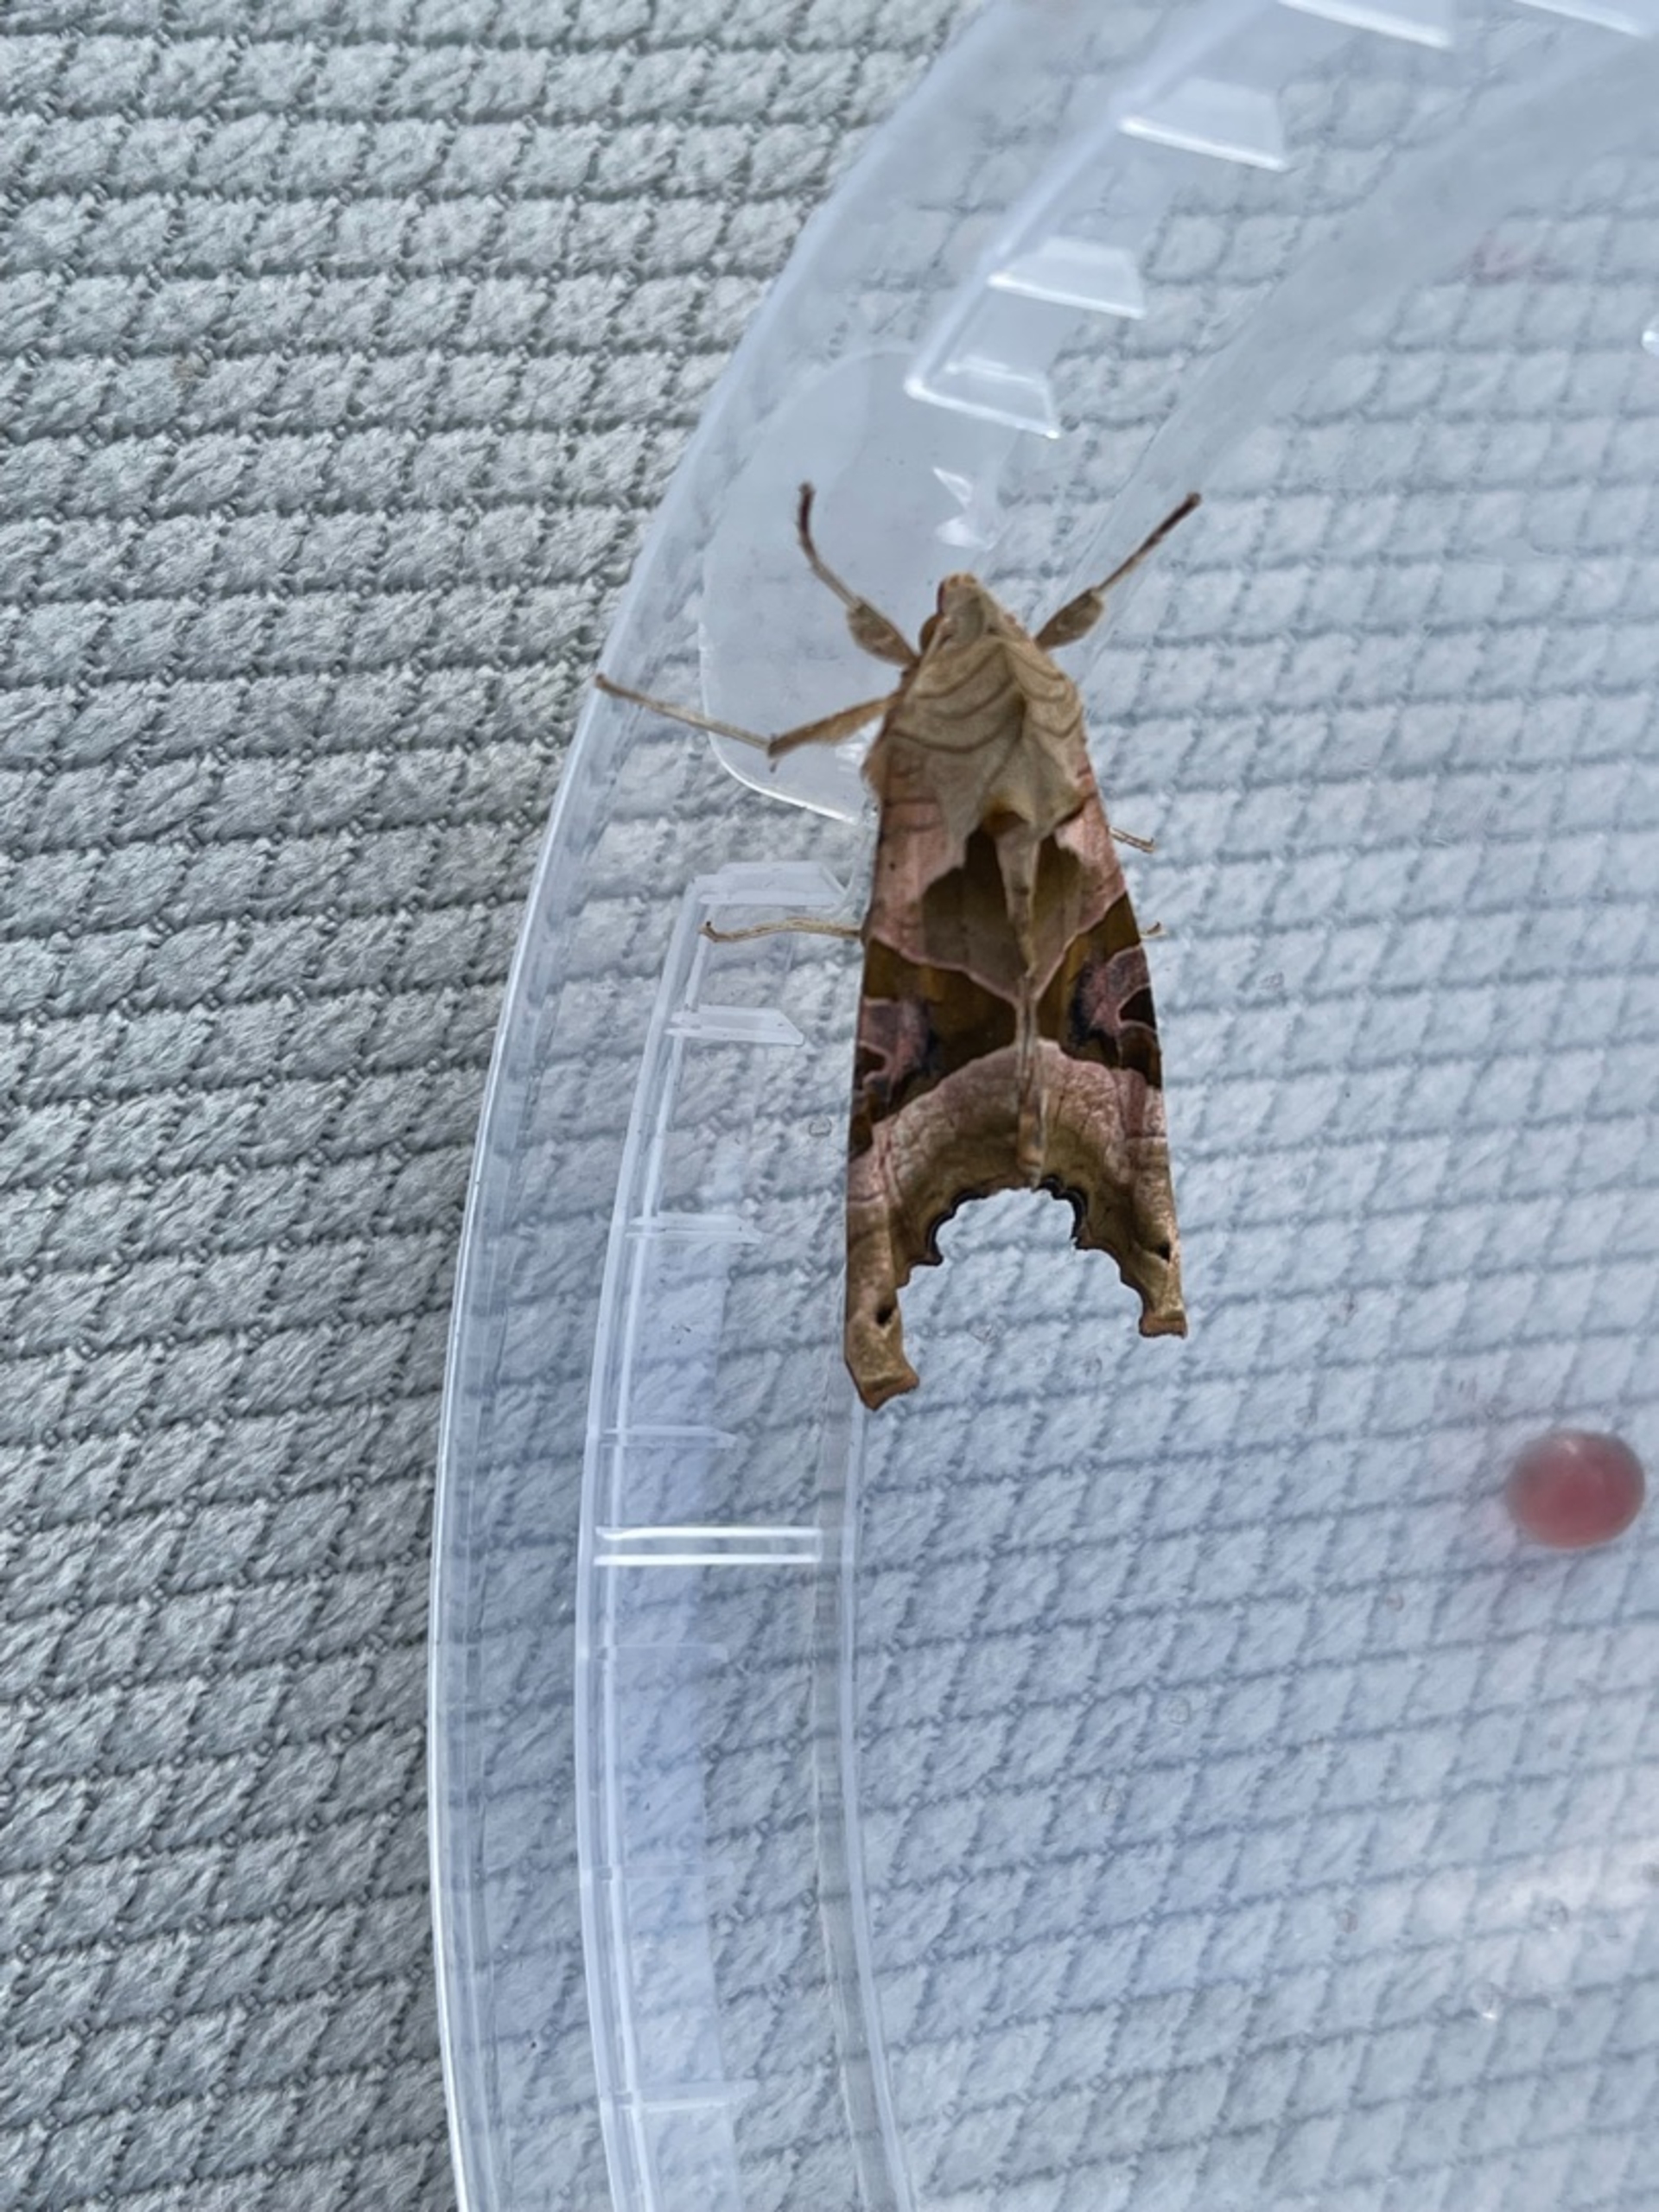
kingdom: Animalia
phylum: Arthropoda
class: Insecta
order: Lepidoptera
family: Noctuidae
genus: Phlogophora
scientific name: Phlogophora meticulosa
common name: Agatugle
